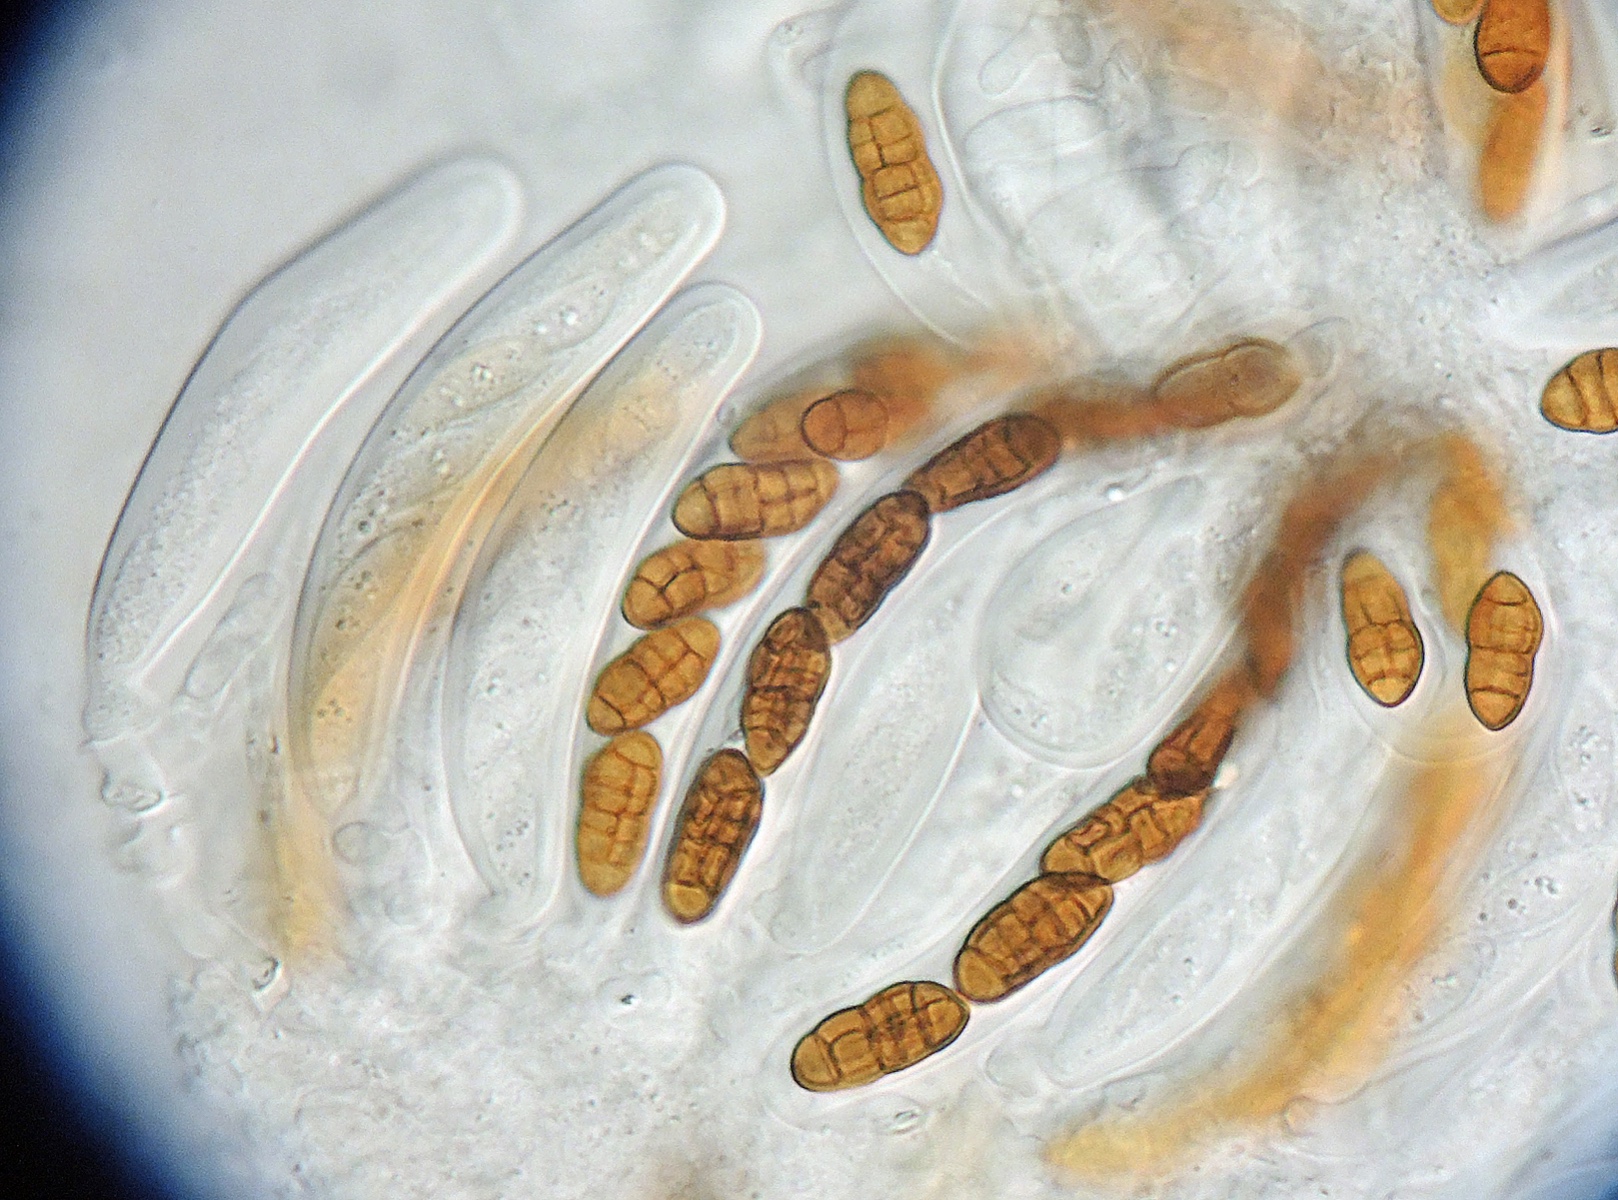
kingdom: Fungi
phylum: Ascomycota
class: Dothideomycetes
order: Pleosporales
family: Pleosporaceae
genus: Pleospora
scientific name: Pleospora phaeocomoides
